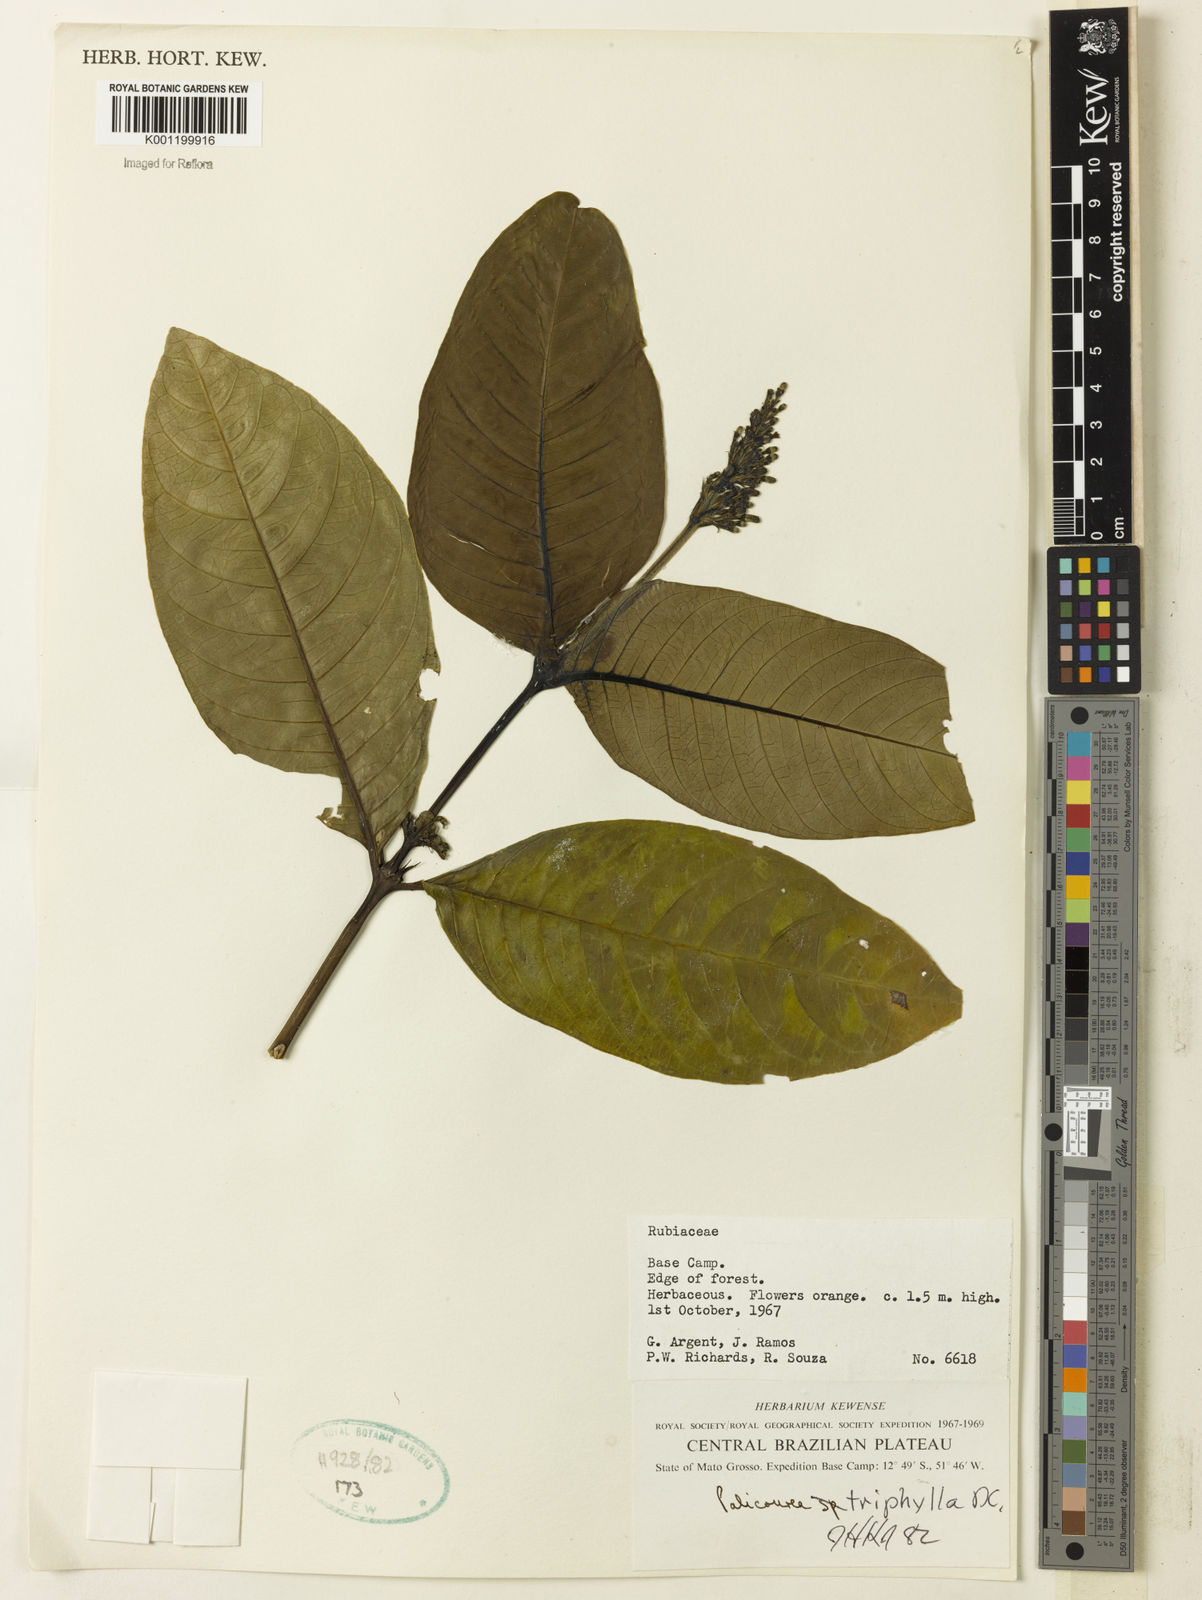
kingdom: Plantae
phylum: Tracheophyta
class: Magnoliopsida
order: Gentianales
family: Rubiaceae
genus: Palicourea
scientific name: Palicourea triphylla
